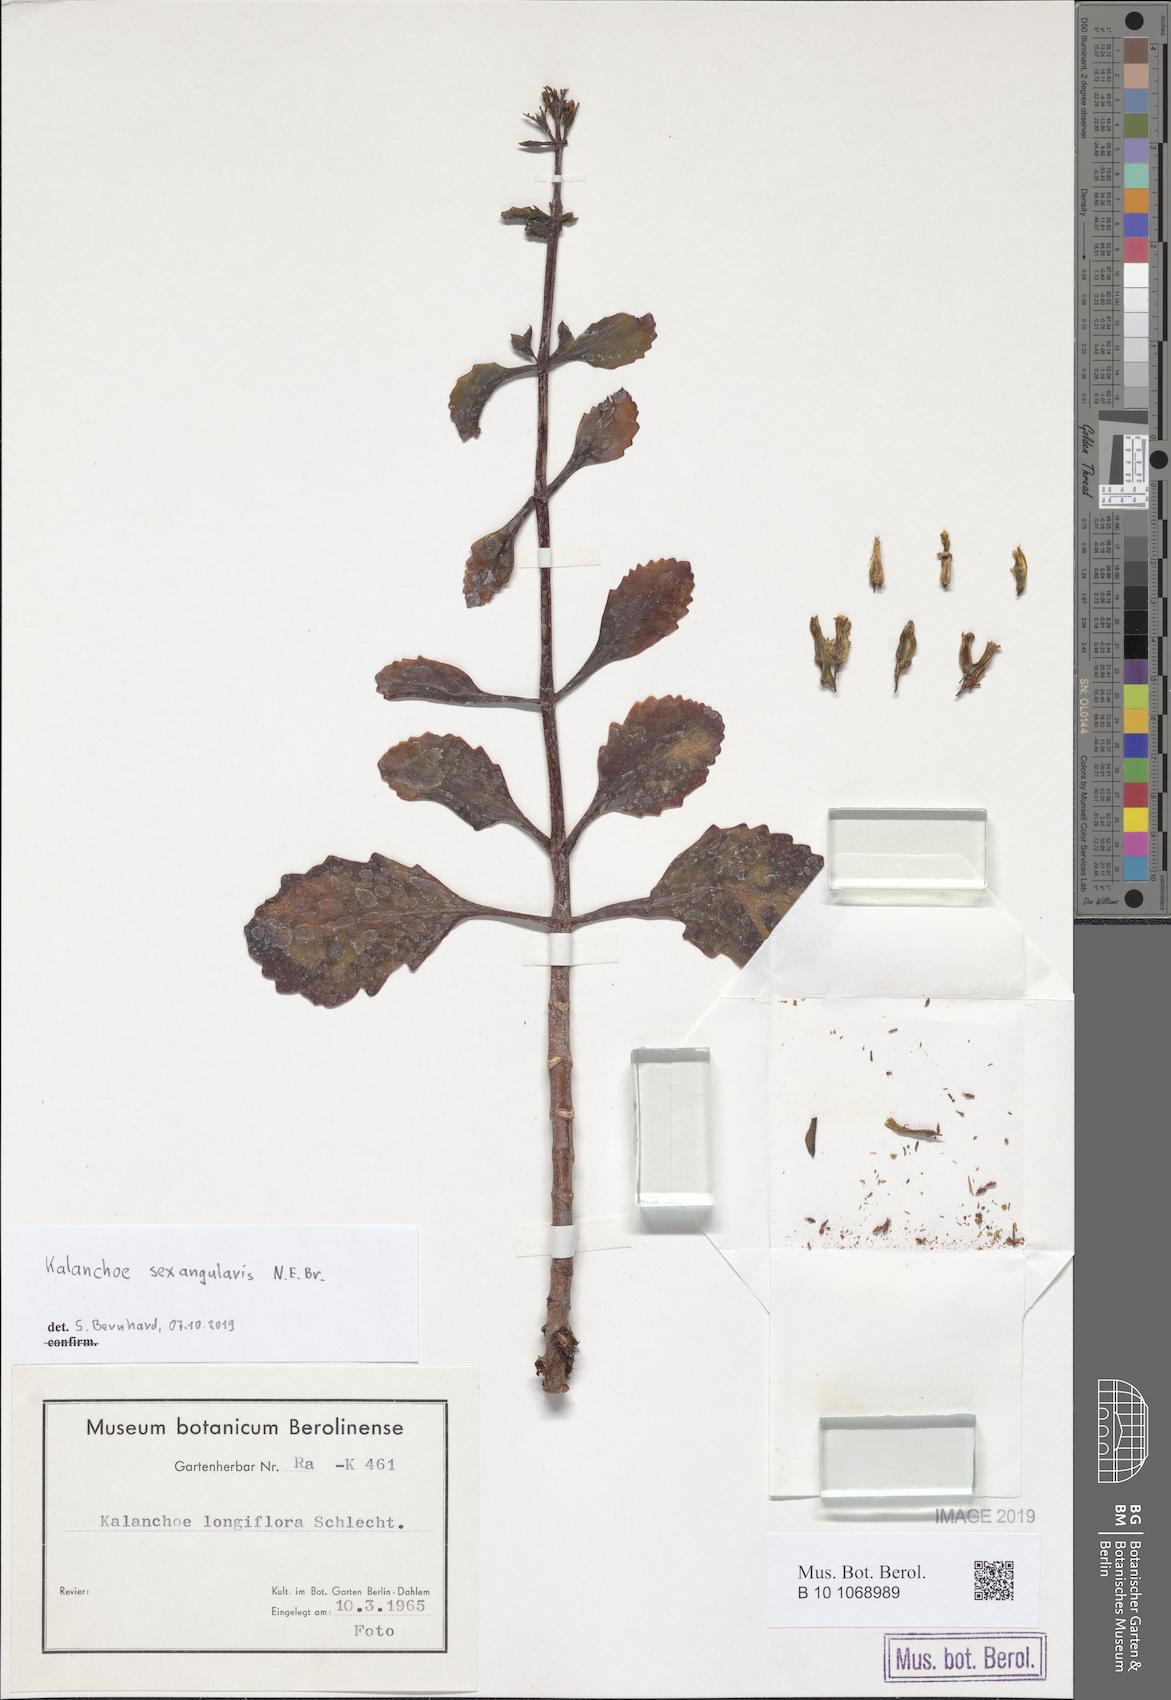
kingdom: Plantae
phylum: Tracheophyta
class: Magnoliopsida
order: Saxifragales
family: Crassulaceae
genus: Kalanchoe
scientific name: Kalanchoe sexangularis
